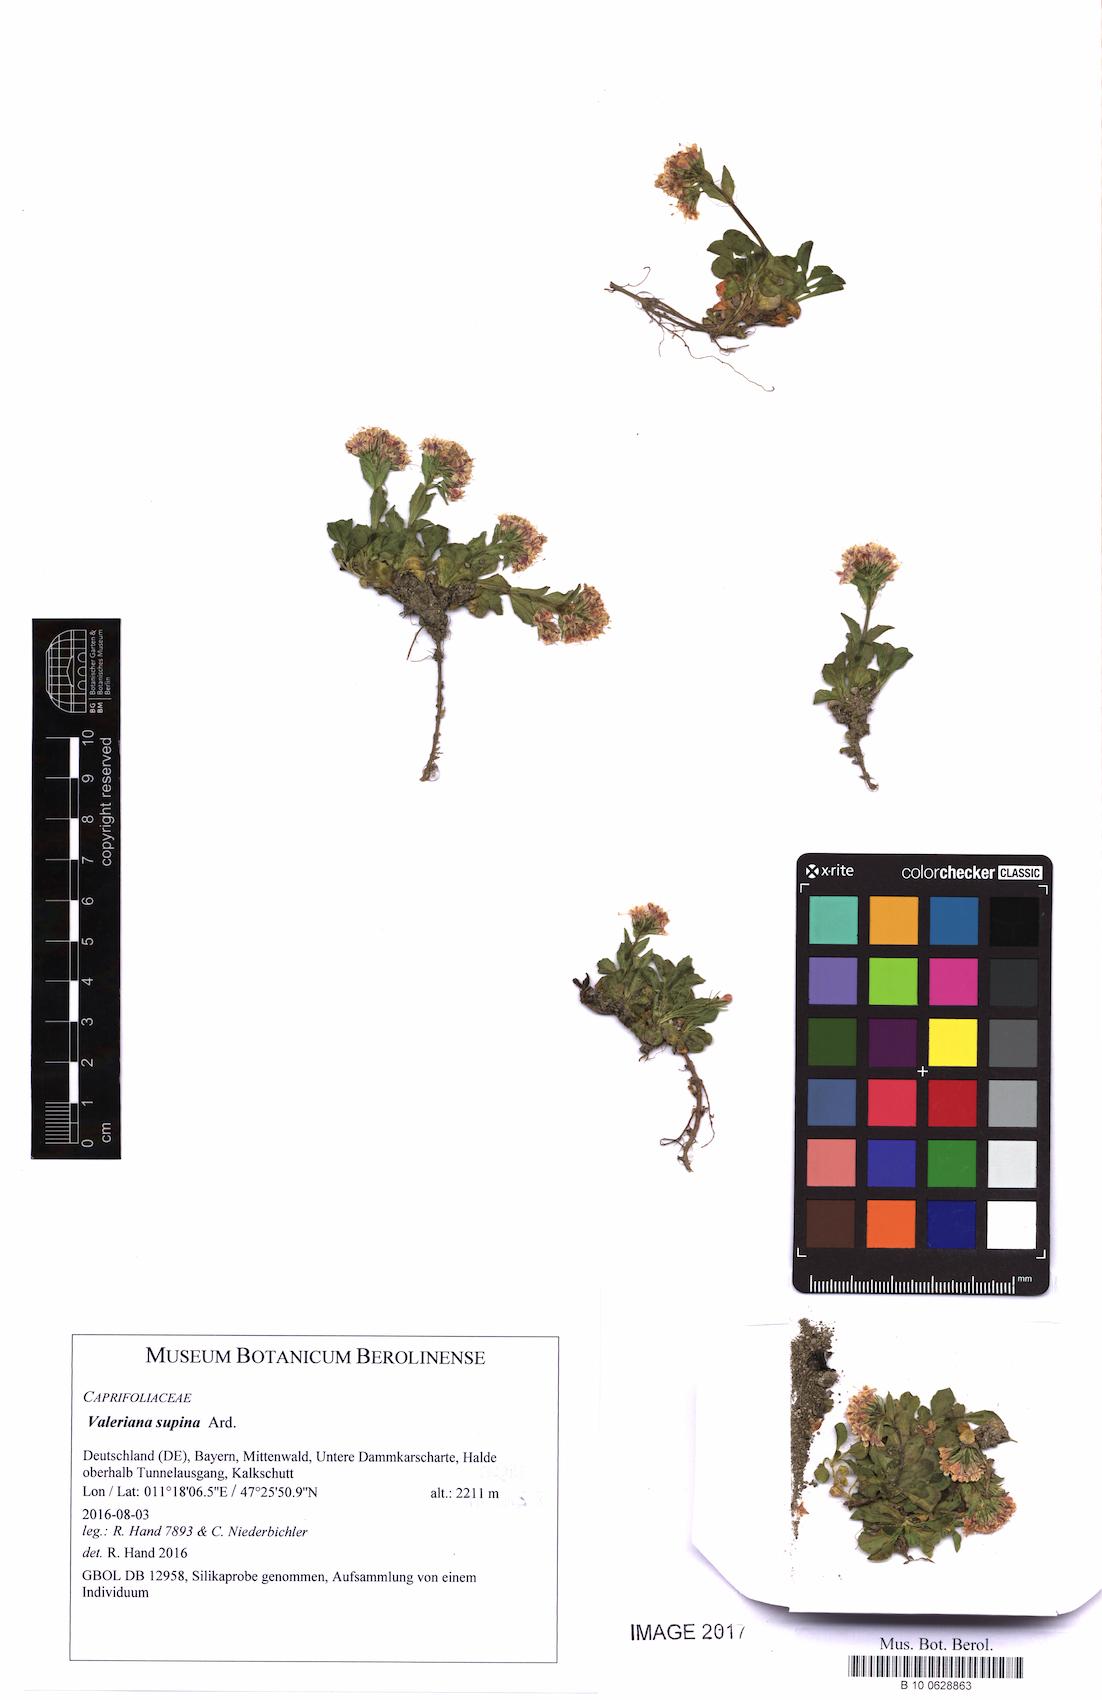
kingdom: Plantae
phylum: Tracheophyta
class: Magnoliopsida
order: Dipsacales
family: Caprifoliaceae
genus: Valeriana
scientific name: Valeriana supina
